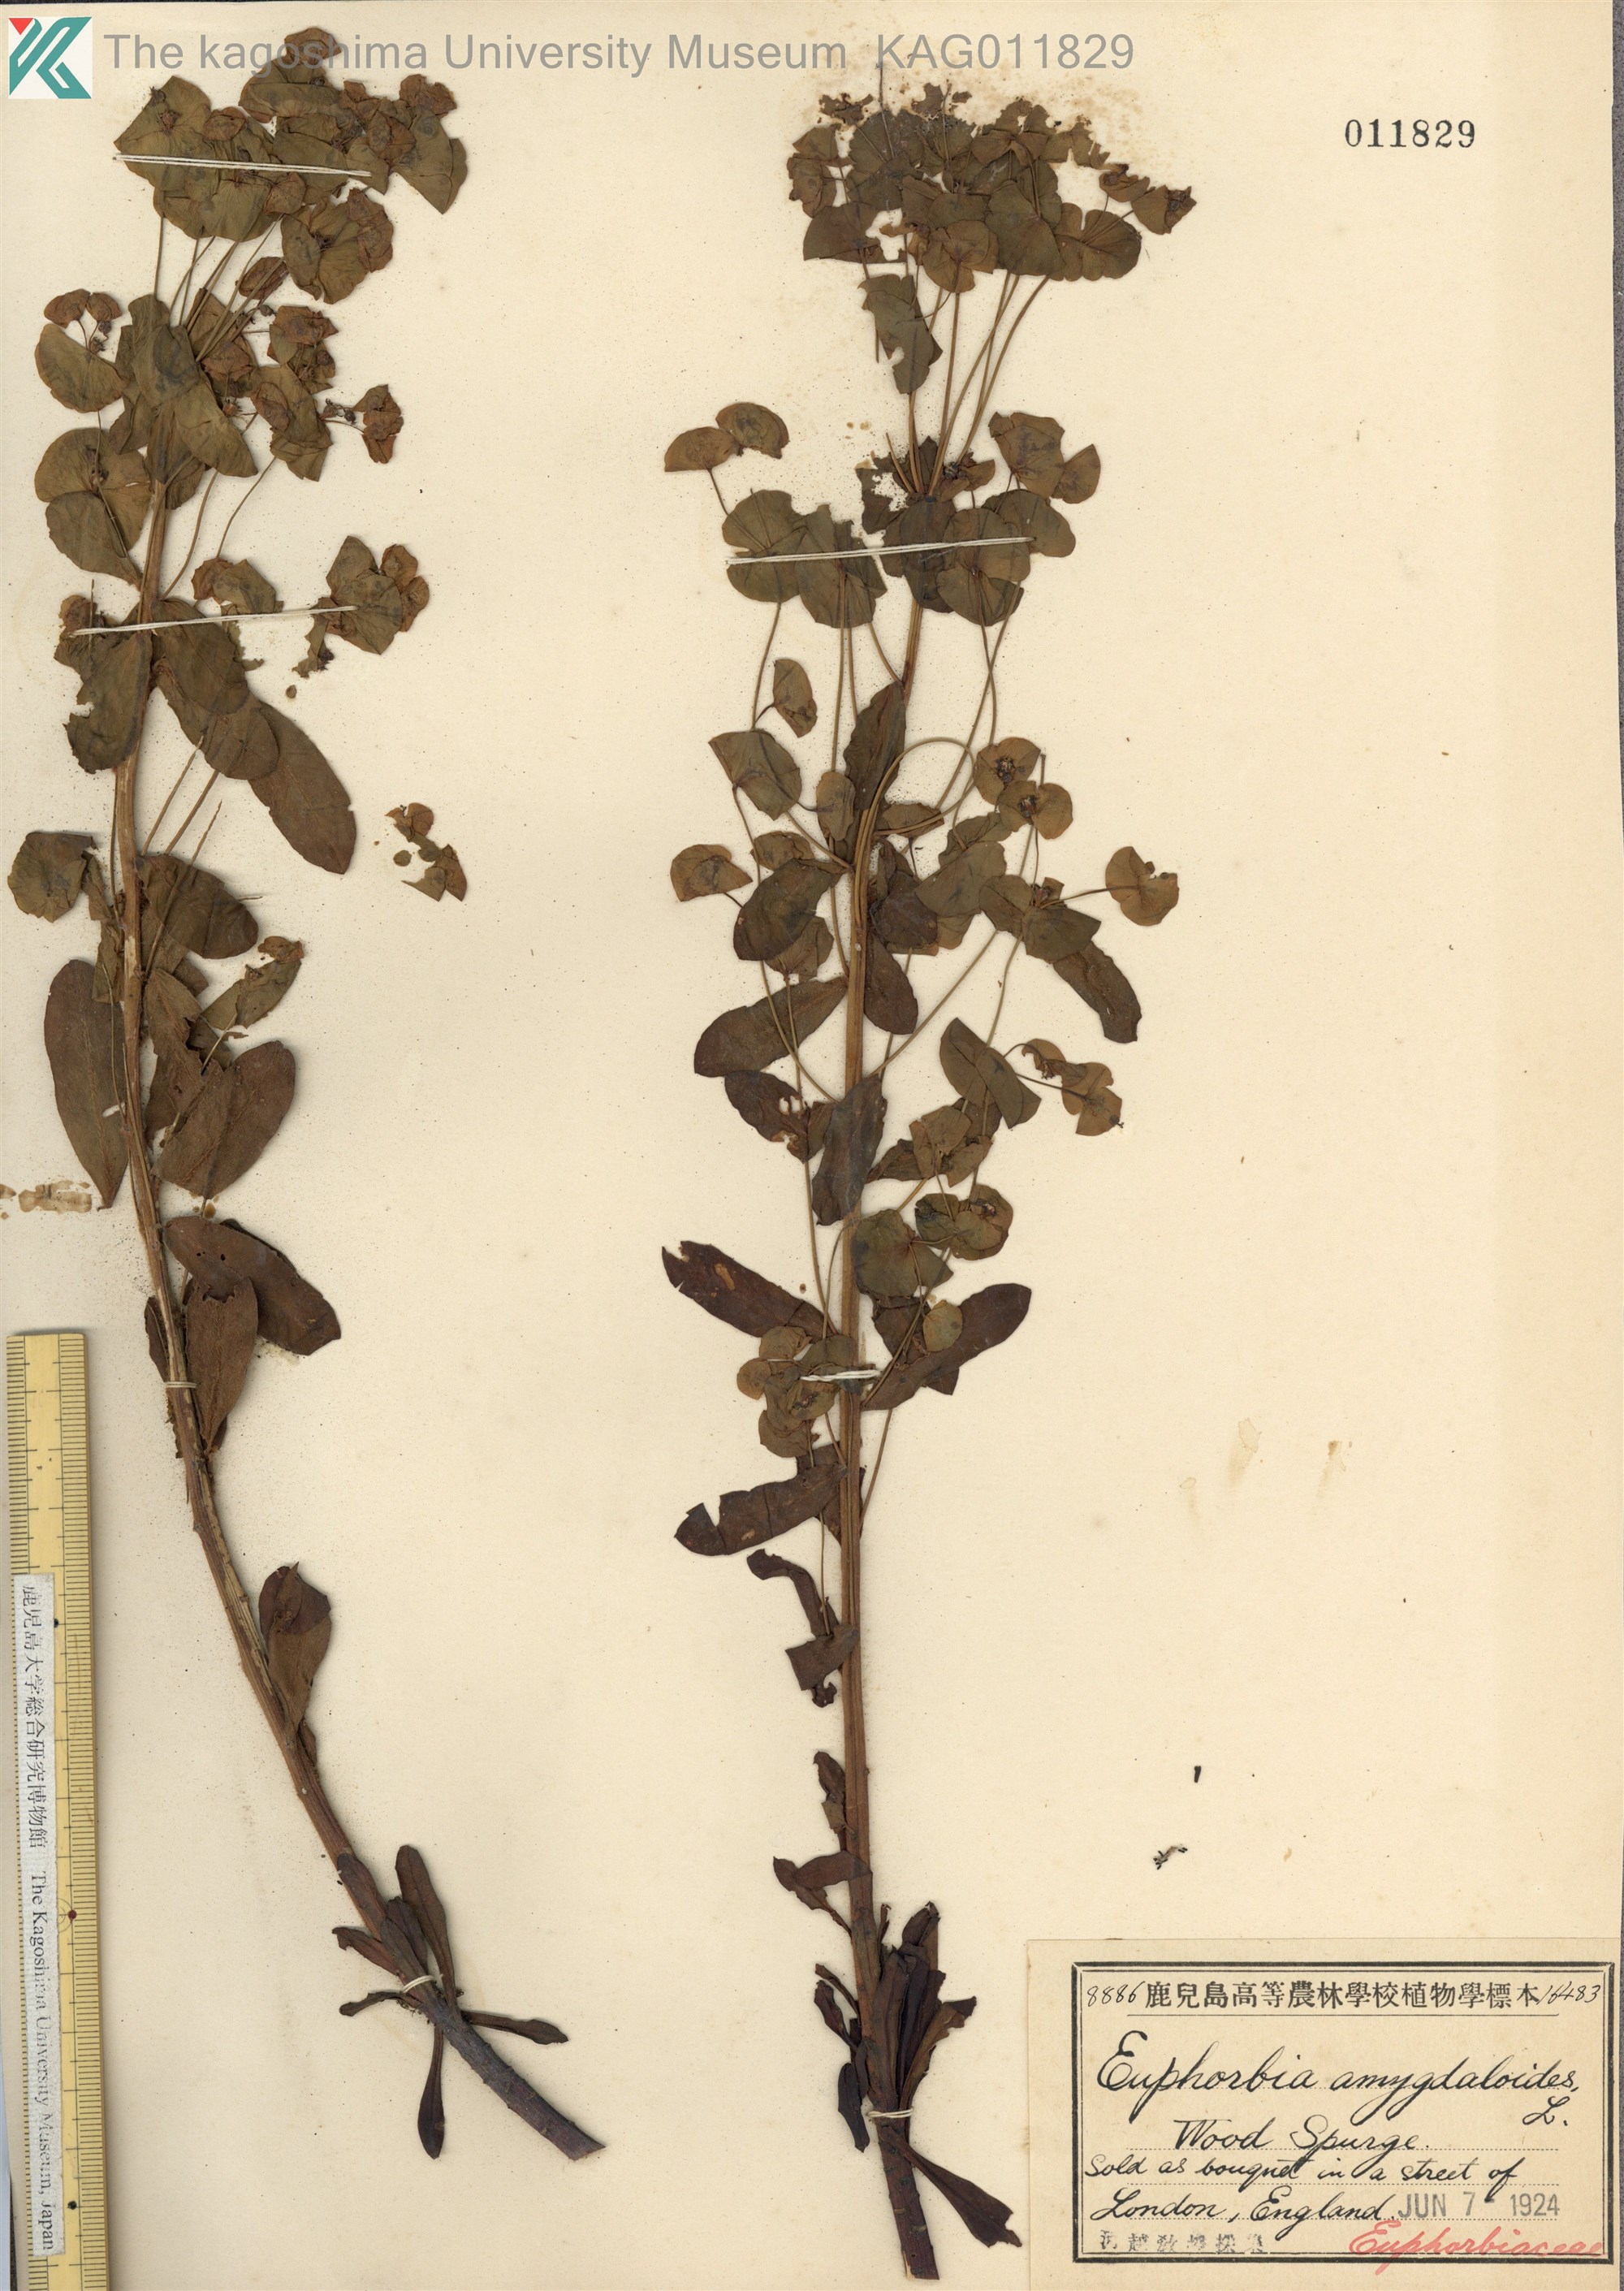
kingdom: Plantae
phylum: Tracheophyta
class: Magnoliopsida
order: Malpighiales
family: Euphorbiaceae
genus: Euphorbia
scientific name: Euphorbia amygdaloides
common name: Wood spurge
